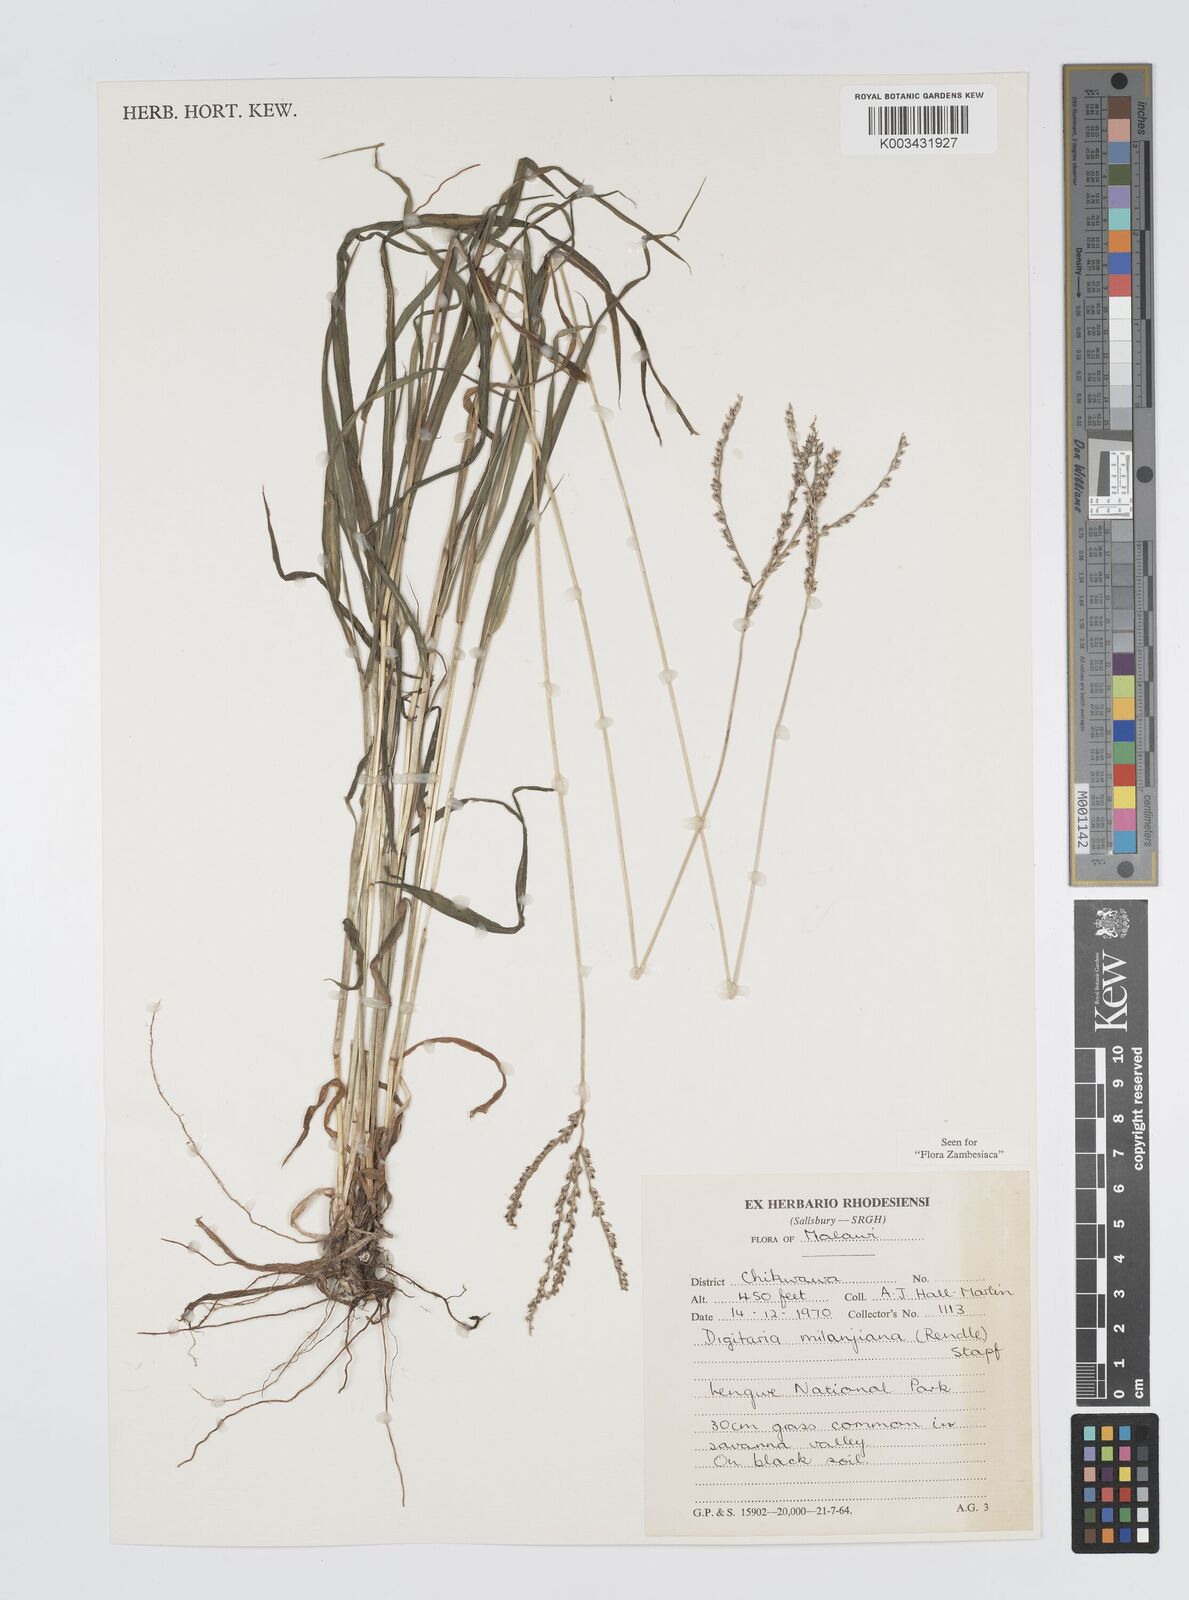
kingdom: Plantae
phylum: Tracheophyta
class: Liliopsida
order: Poales
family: Poaceae
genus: Digitaria
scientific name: Digitaria milanjiana
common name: Madagascar crabgrass
